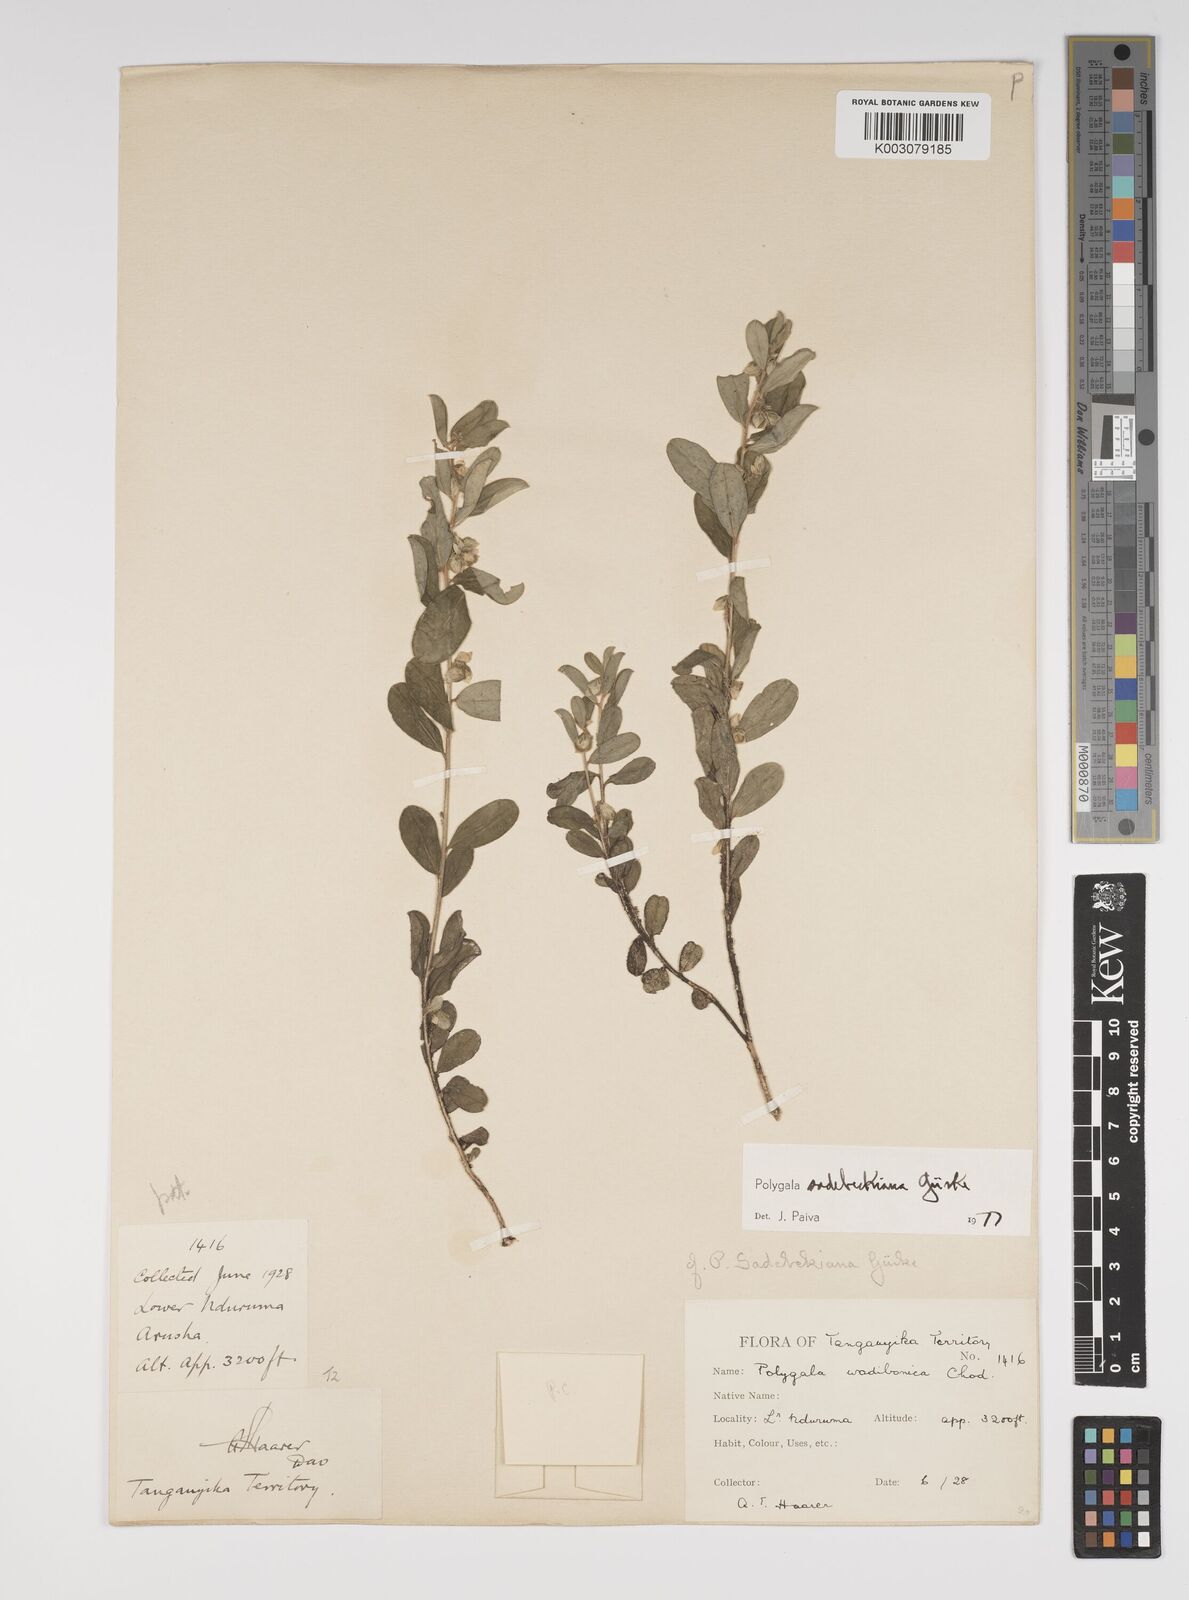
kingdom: Plantae
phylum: Tracheophyta
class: Magnoliopsida
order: Fabales
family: Polygalaceae
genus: Polygala
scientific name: Polygala sadebeckiana
